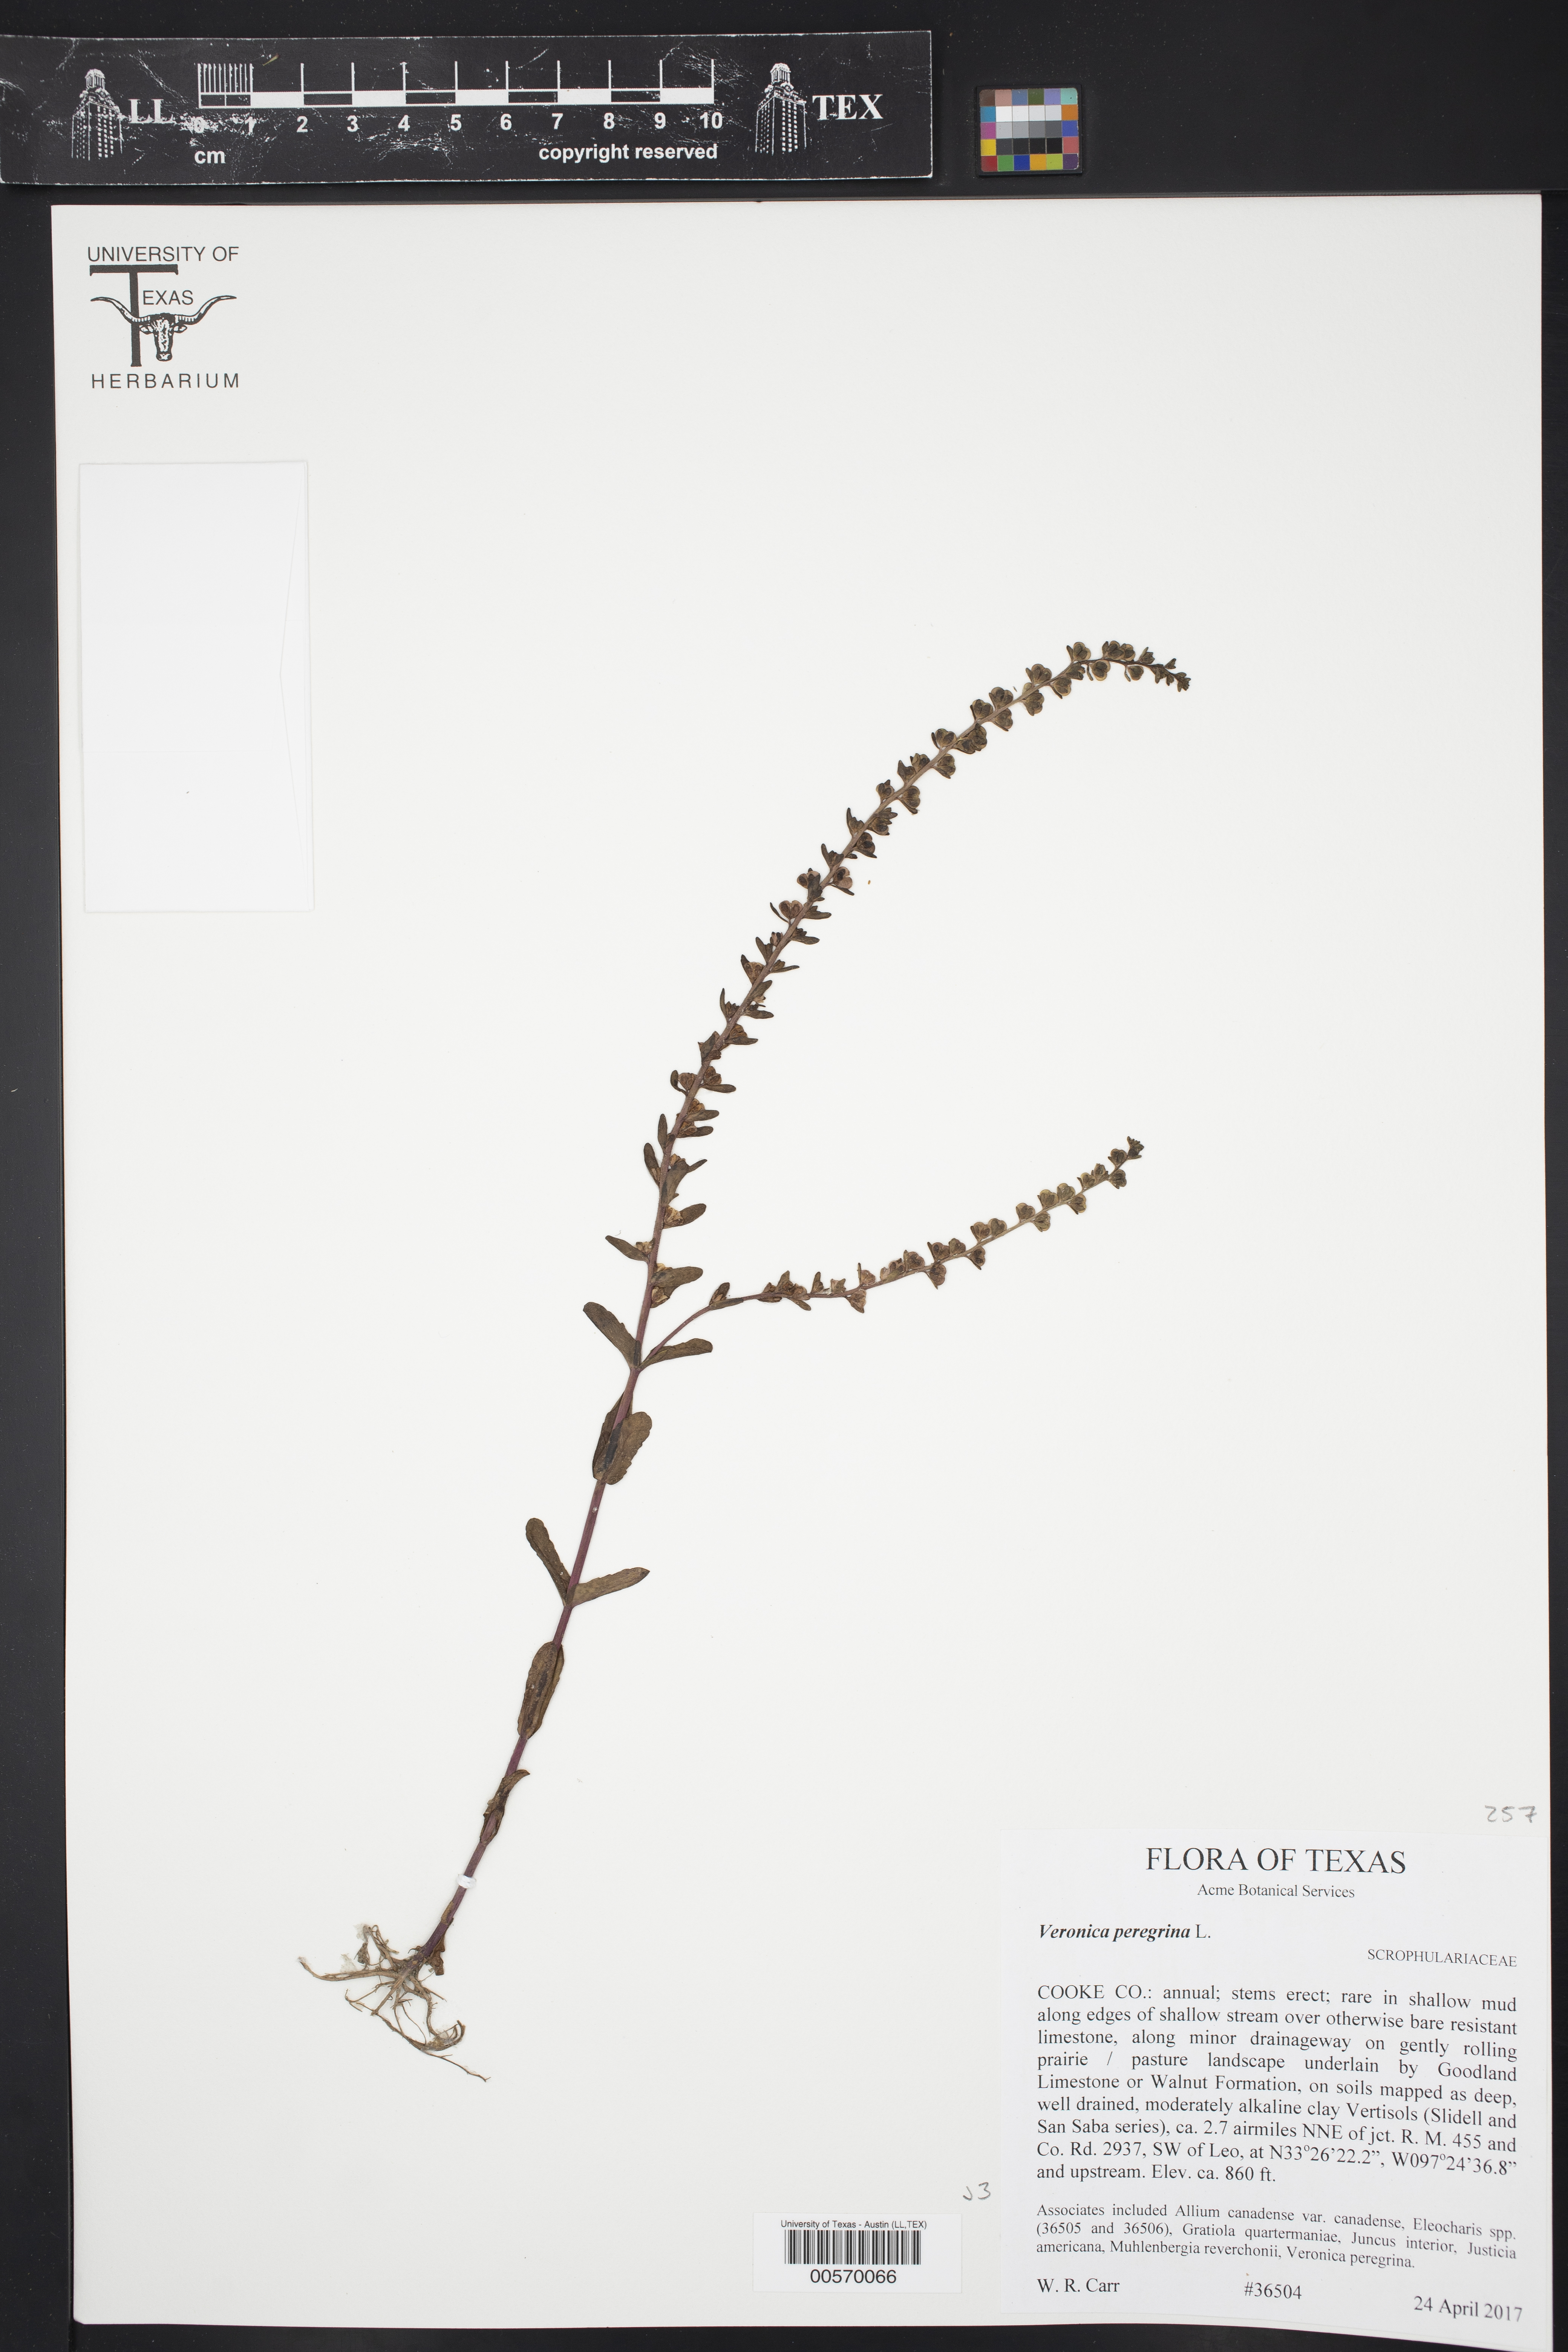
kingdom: Plantae
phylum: Tracheophyta
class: Magnoliopsida
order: Lamiales
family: Plantaginaceae
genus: Veronica
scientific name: Veronica peregrina
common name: Neckweed
